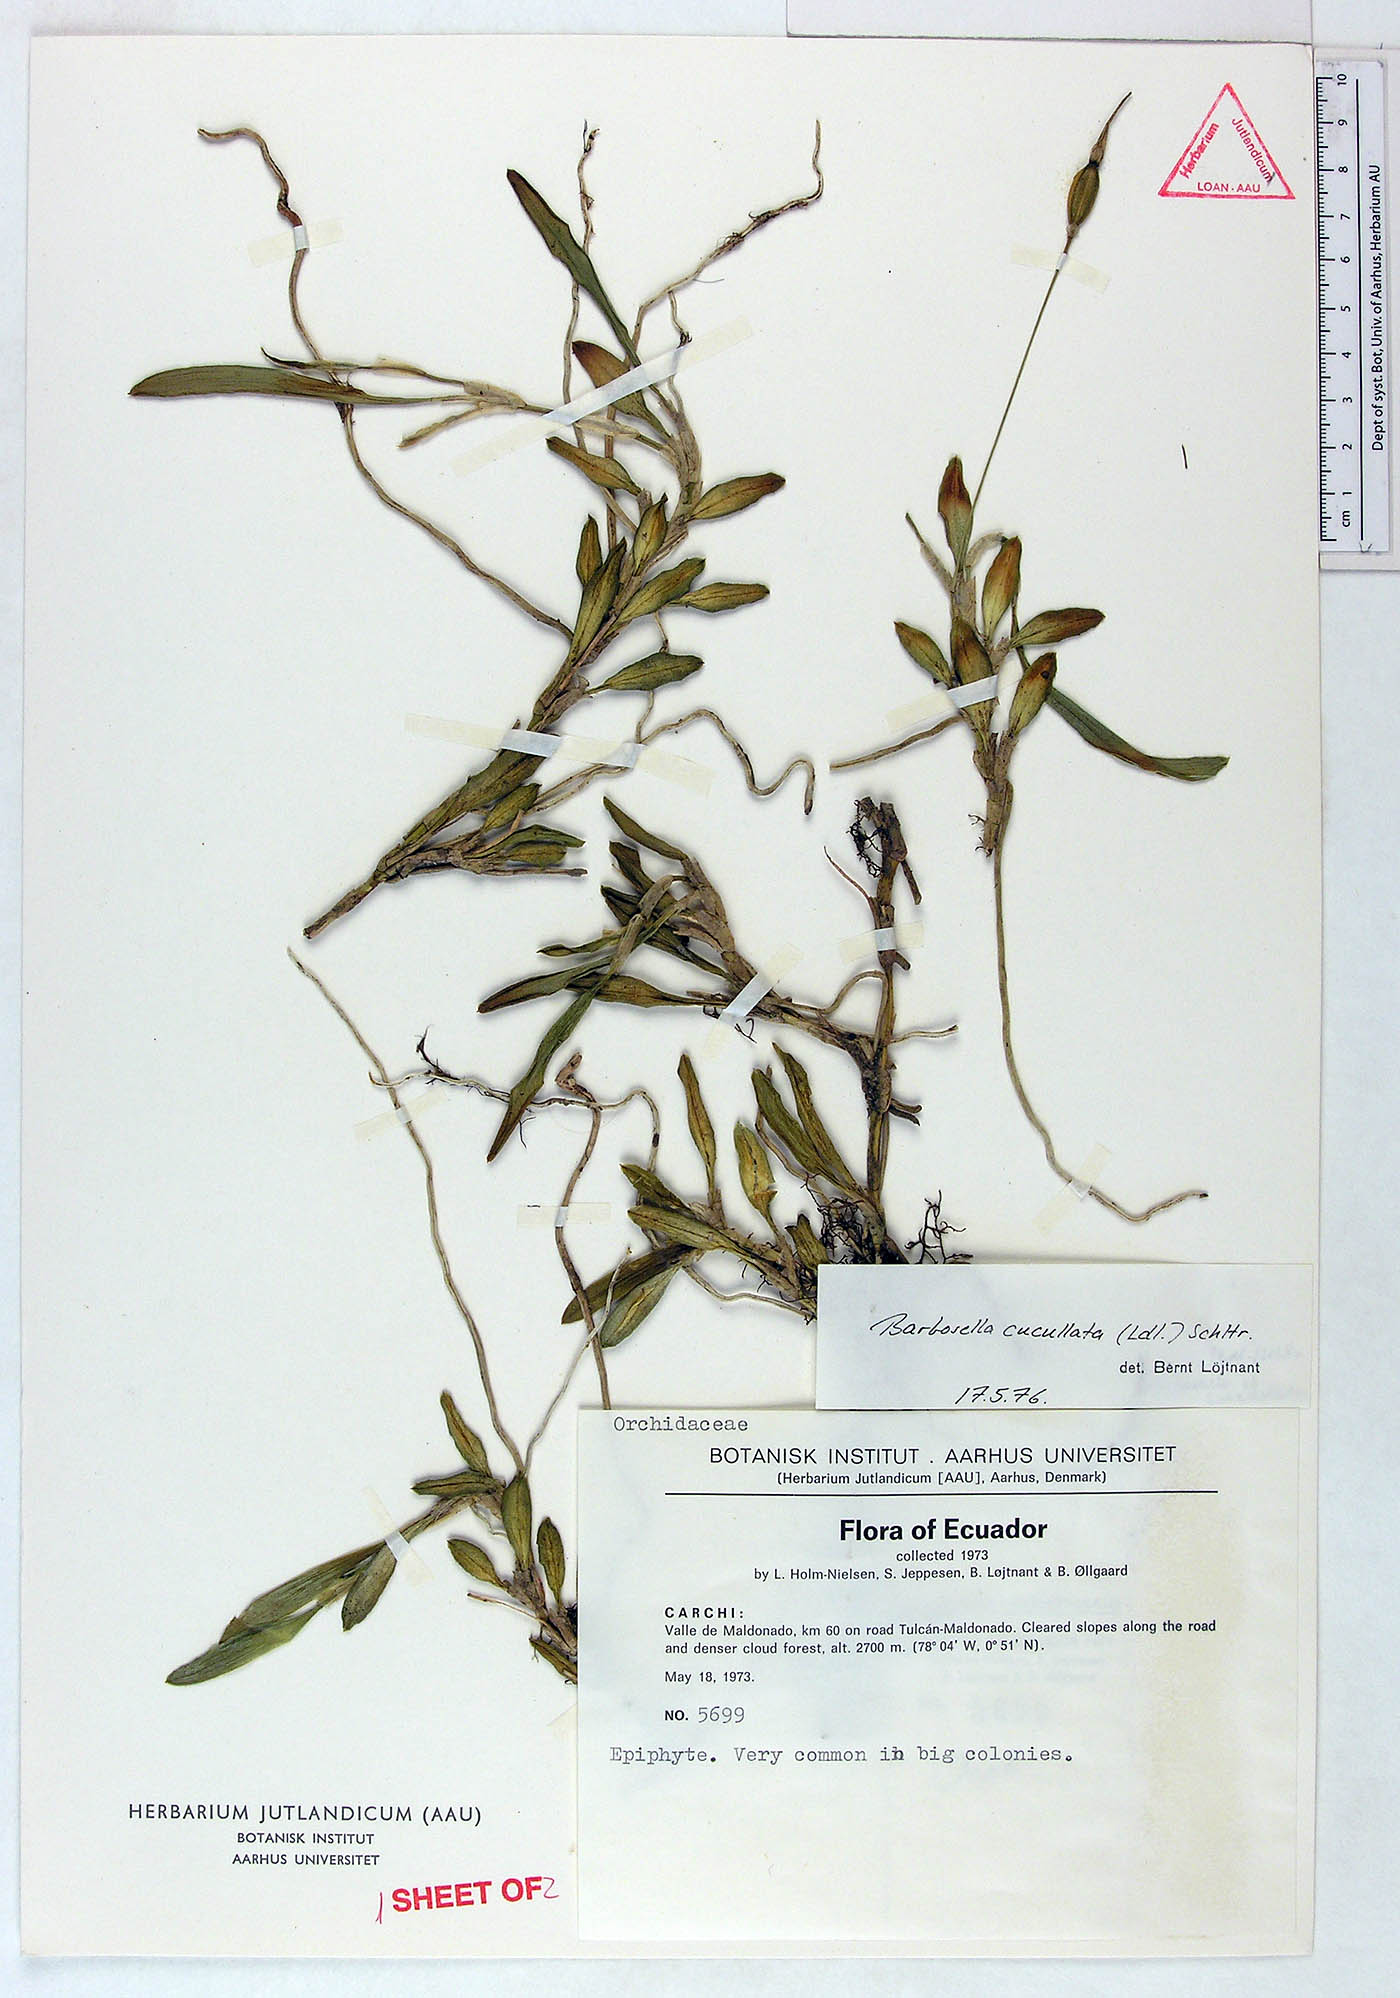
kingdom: Plantae
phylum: Tracheophyta
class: Liliopsida
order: Asparagales
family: Orchidaceae
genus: Barbosella
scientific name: Barbosella cucullata
